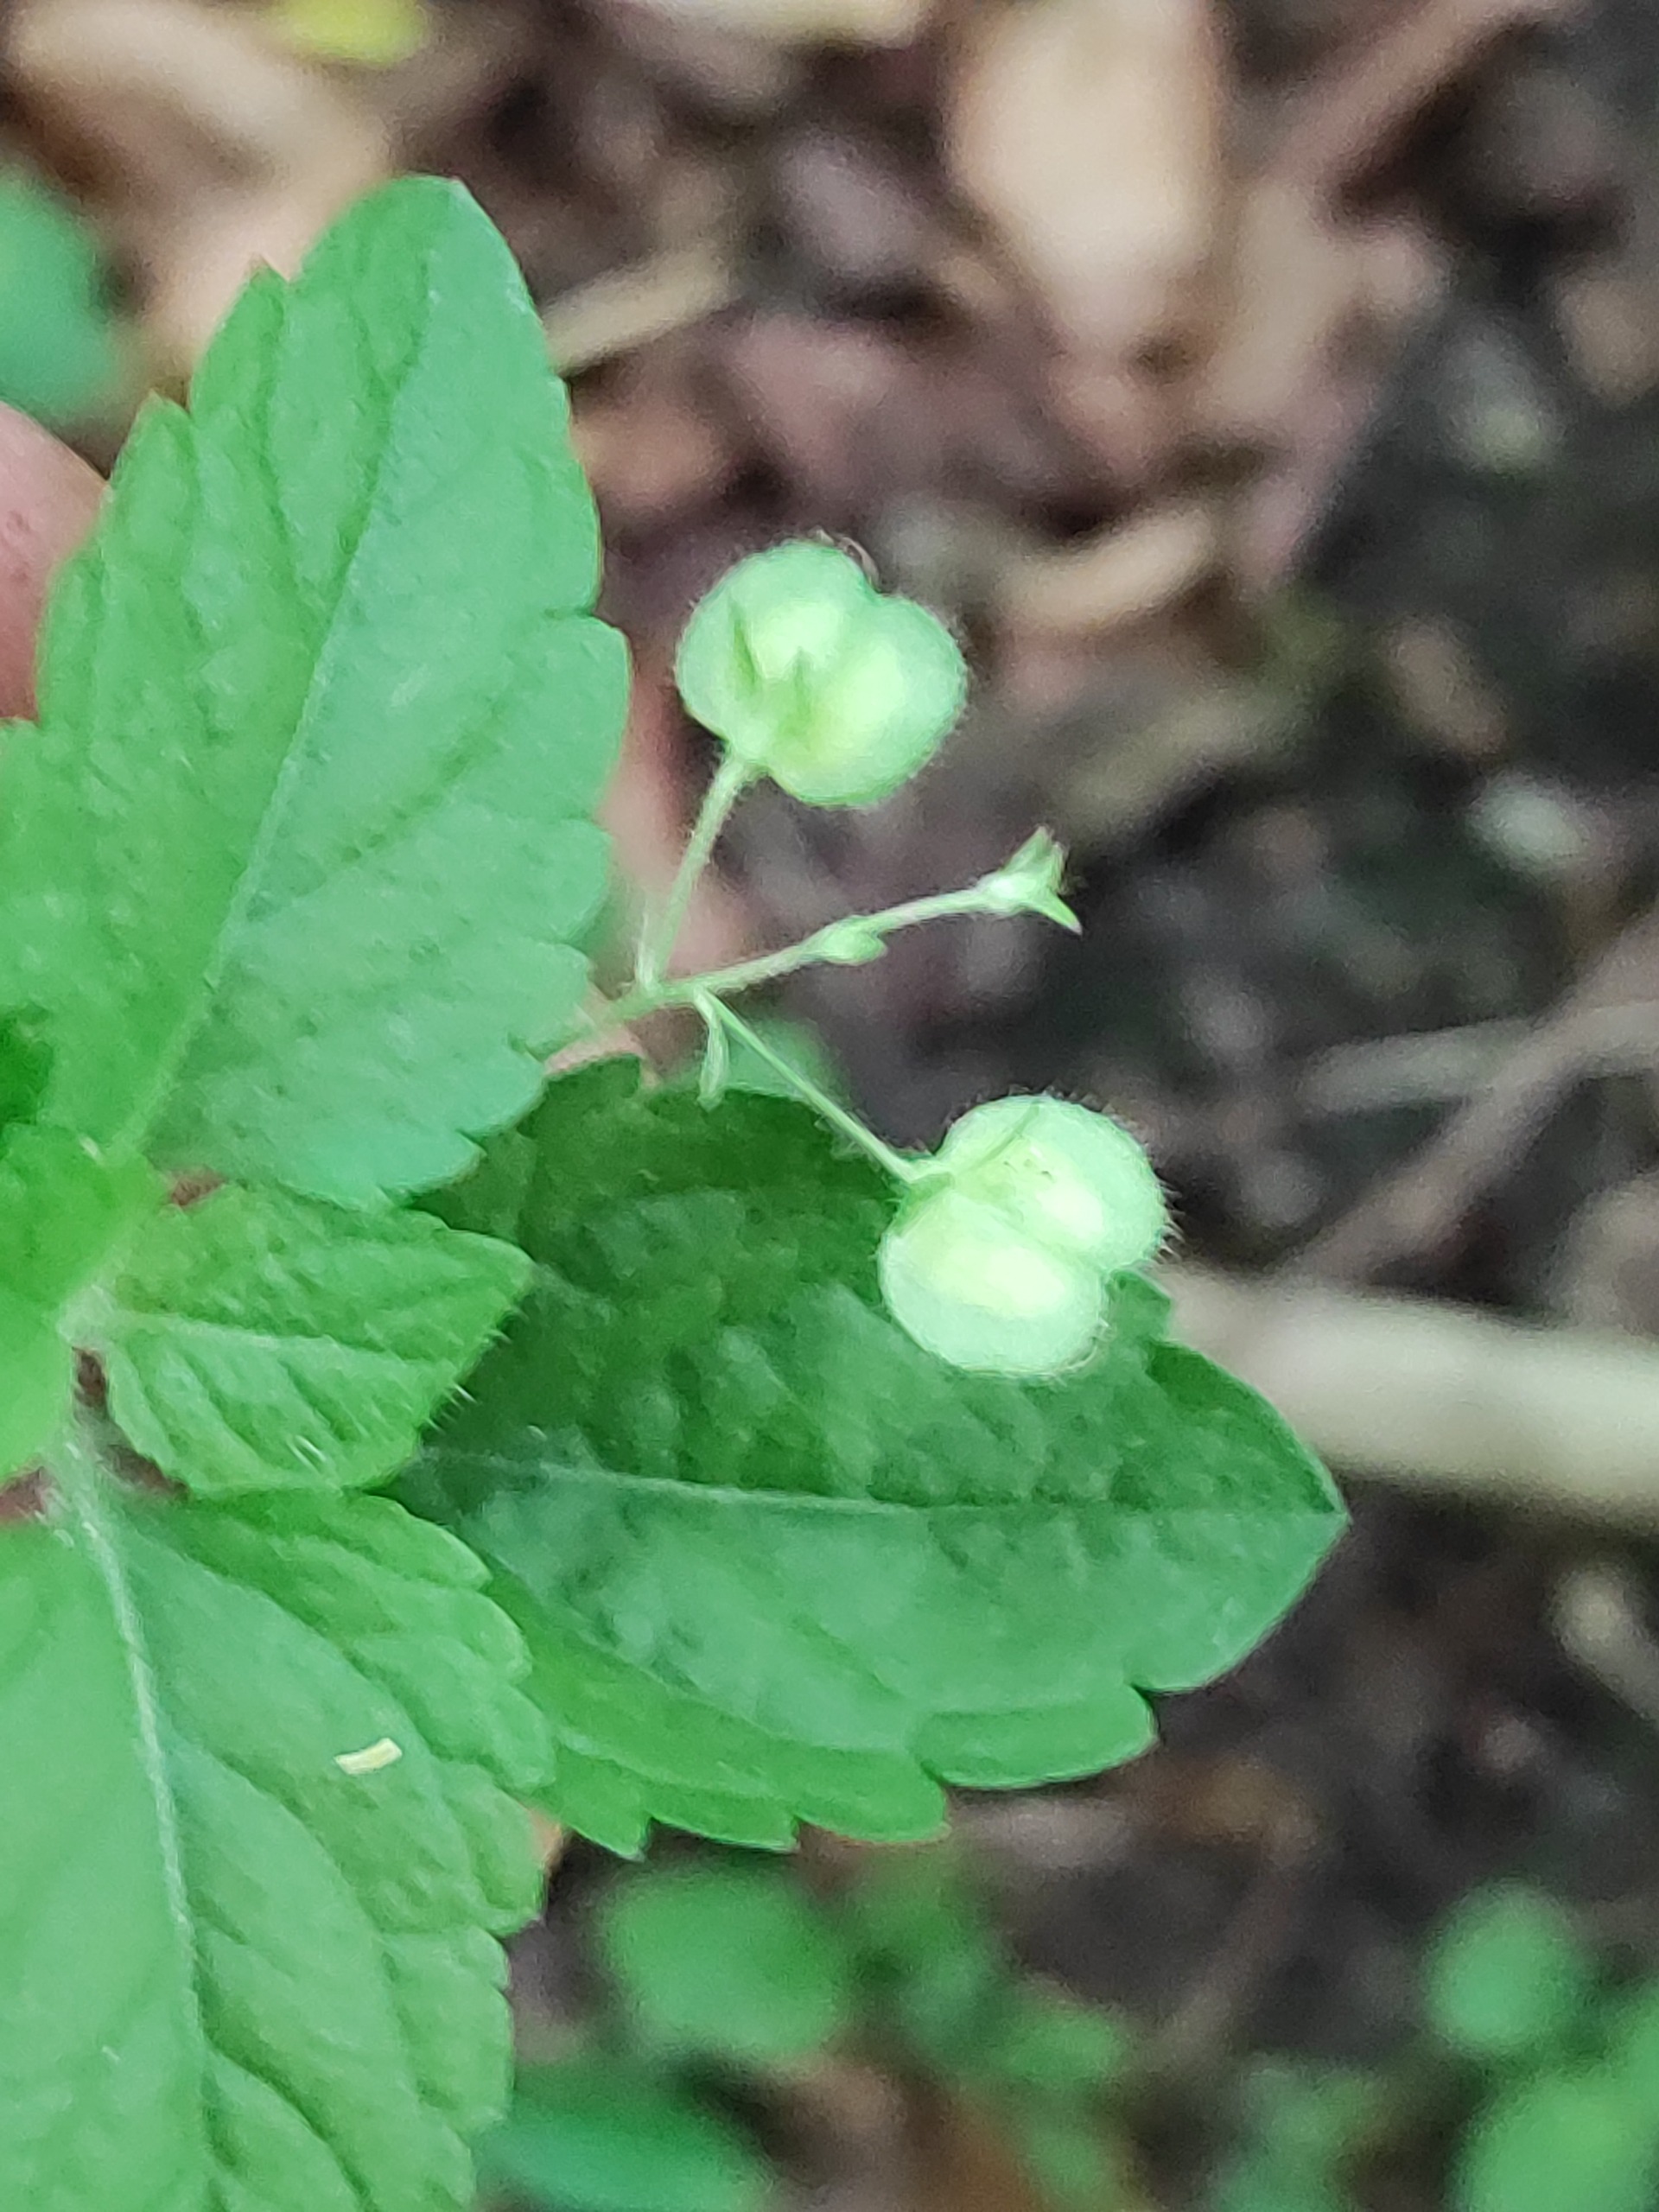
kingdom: Plantae
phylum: Tracheophyta
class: Magnoliopsida
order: Lamiales
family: Plantaginaceae
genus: Veronica
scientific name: Veronica montana
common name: Bjerg-ærenpris
